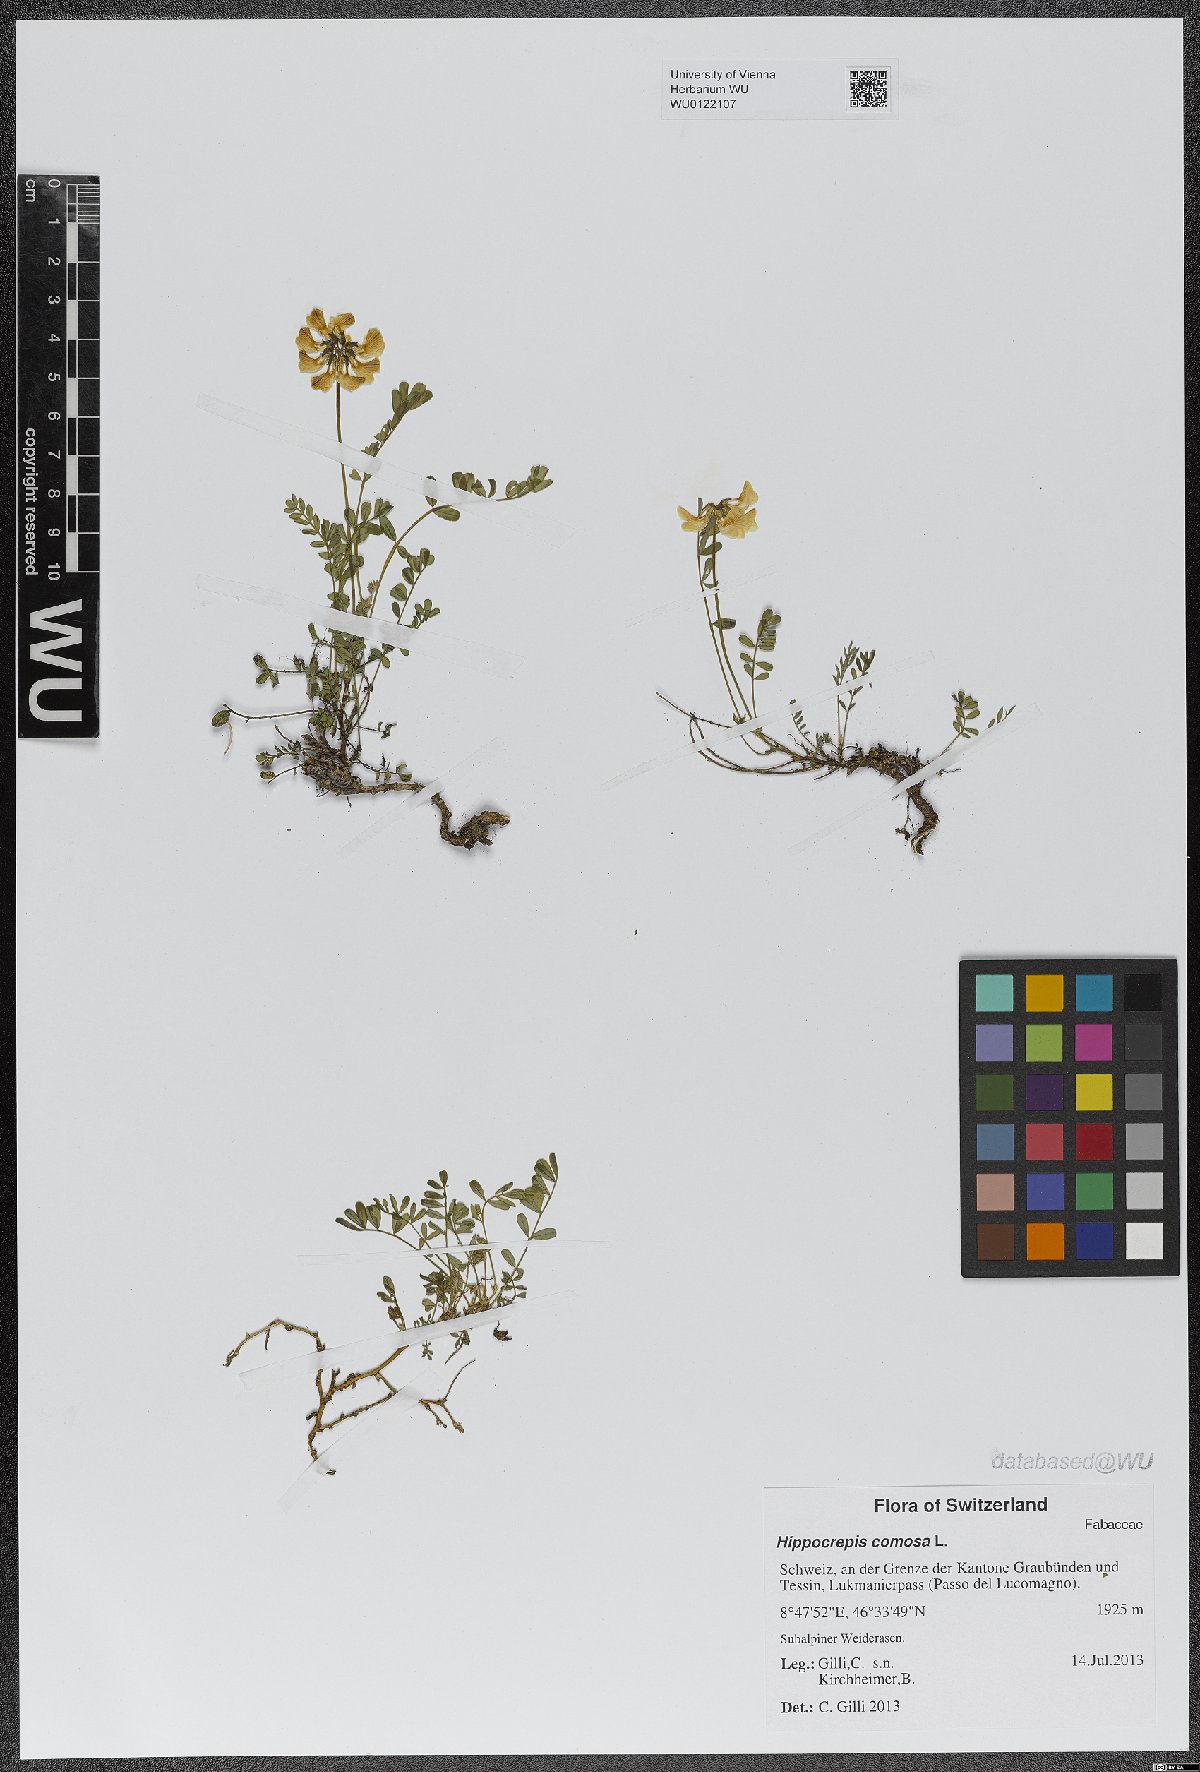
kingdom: Plantae
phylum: Tracheophyta
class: Magnoliopsida
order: Fabales
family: Fabaceae
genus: Hippocrepis
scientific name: Hippocrepis comosa
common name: Horseshoe vetch
